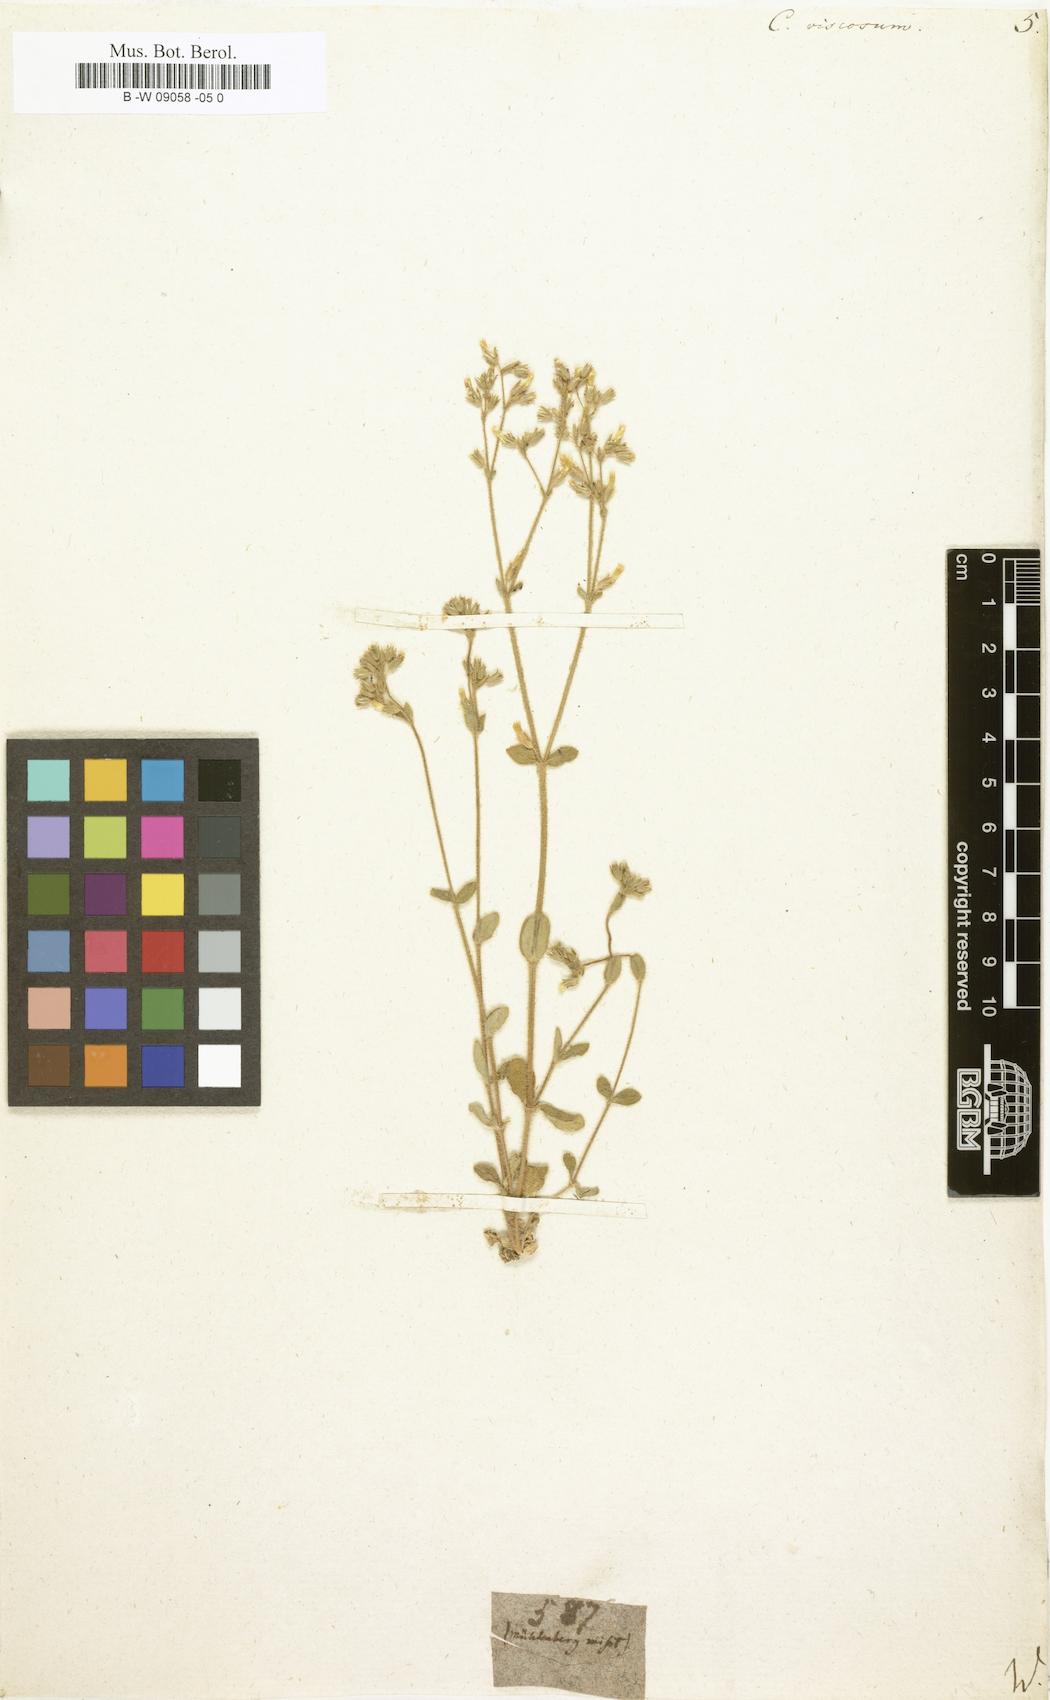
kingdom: Plantae
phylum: Tracheophyta
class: Magnoliopsida
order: Caryophyllales
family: Caryophyllaceae
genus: Cerastium
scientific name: Cerastium holosteoides
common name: Big chickweed
